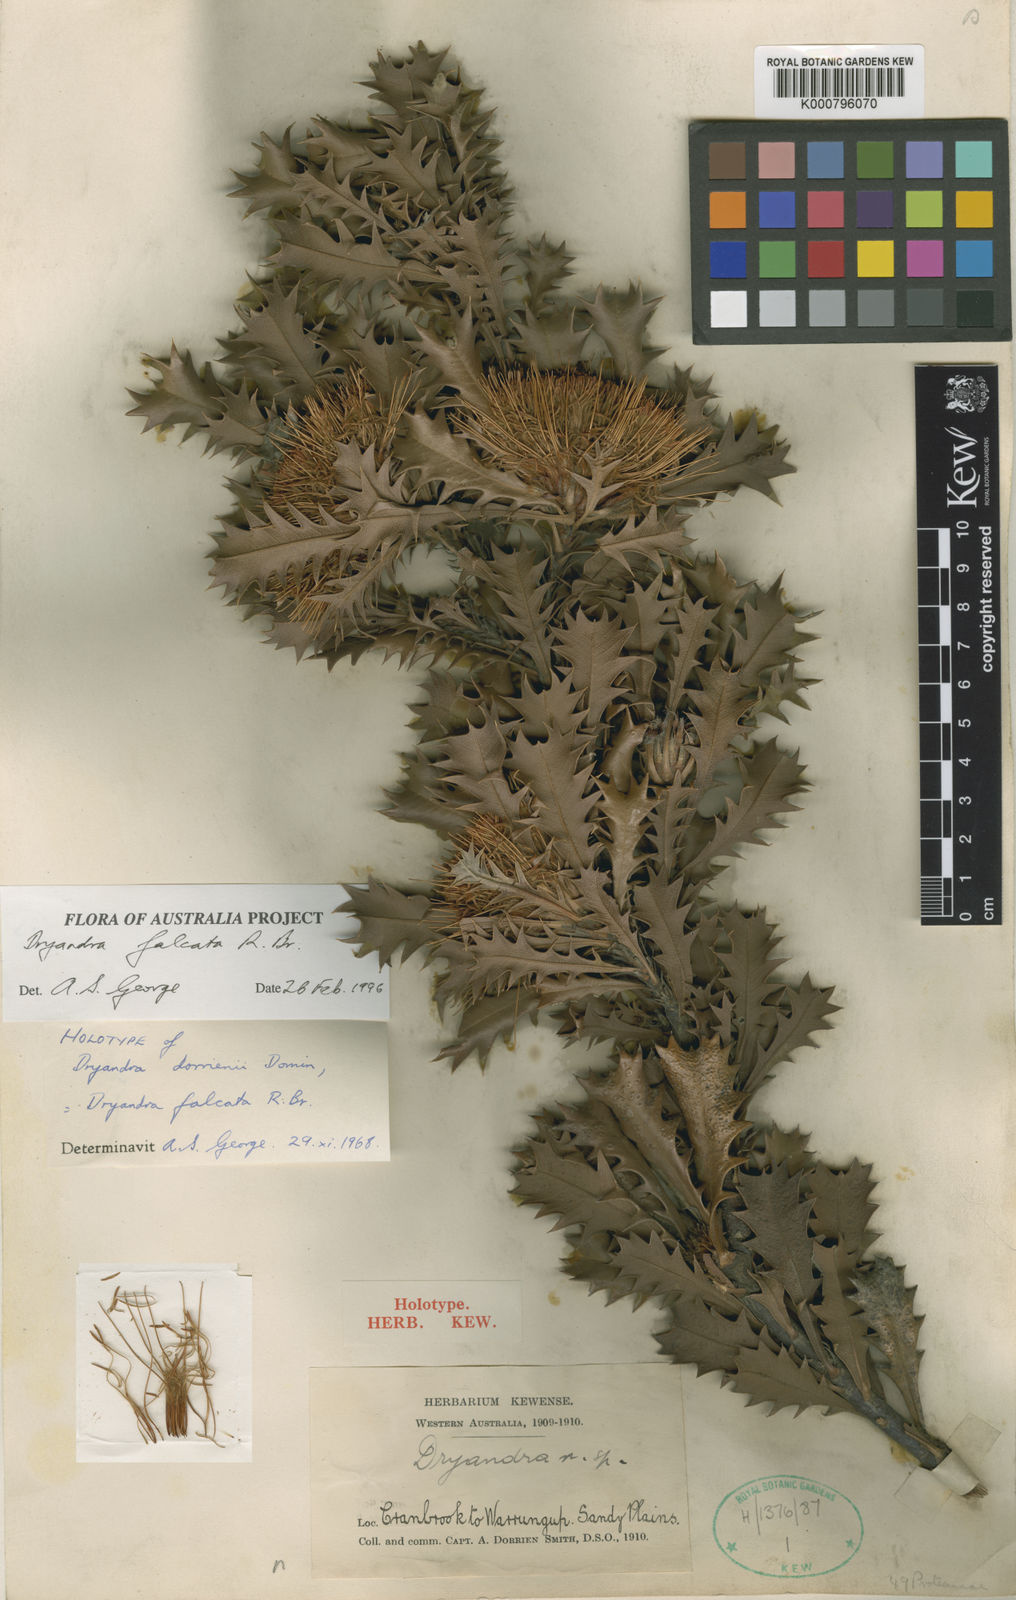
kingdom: Plantae
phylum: Tracheophyta
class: Magnoliopsida
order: Proteales
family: Proteaceae
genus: Banksia
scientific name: Banksia falcata
